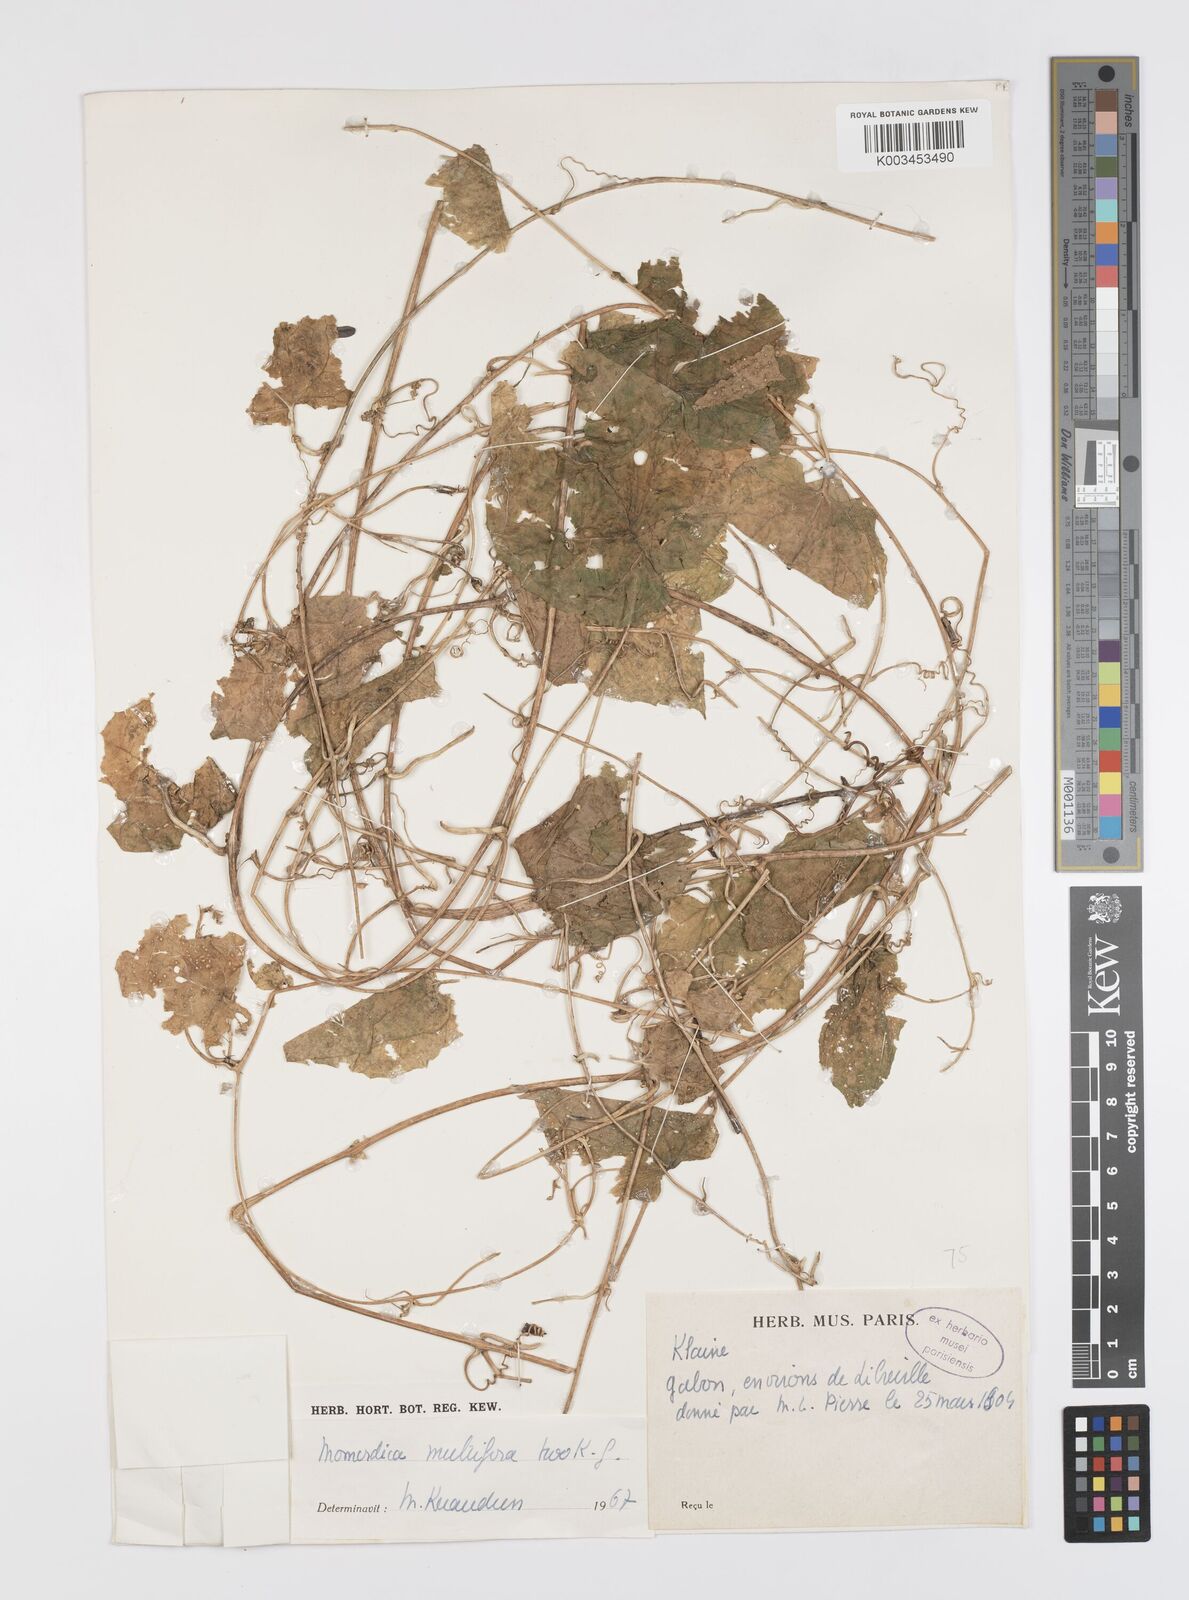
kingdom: Plantae
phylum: Tracheophyta
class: Magnoliopsida
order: Cucurbitales
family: Cucurbitaceae
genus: Momordica
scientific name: Momordica multiflora
